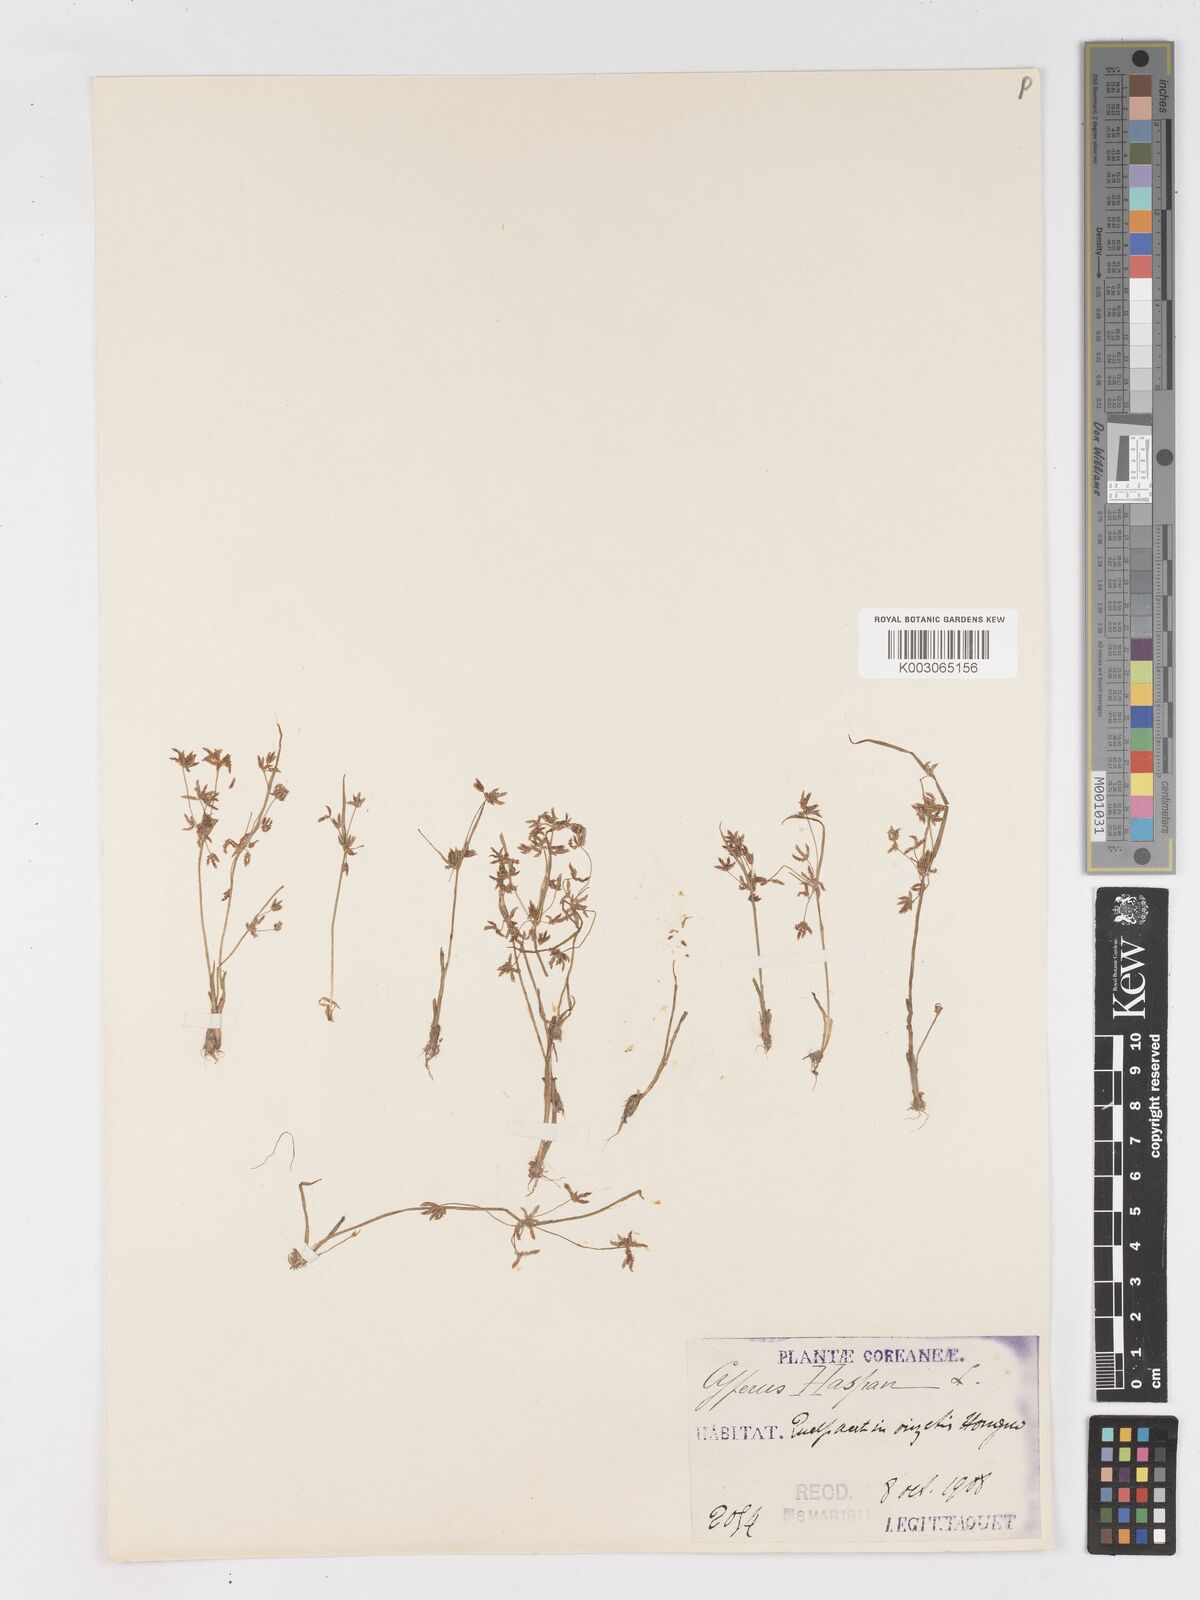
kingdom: Plantae
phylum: Tracheophyta
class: Liliopsida
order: Poales
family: Cyperaceae
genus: Cyperus
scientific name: Cyperus haspan
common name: Haspan flatsedge
